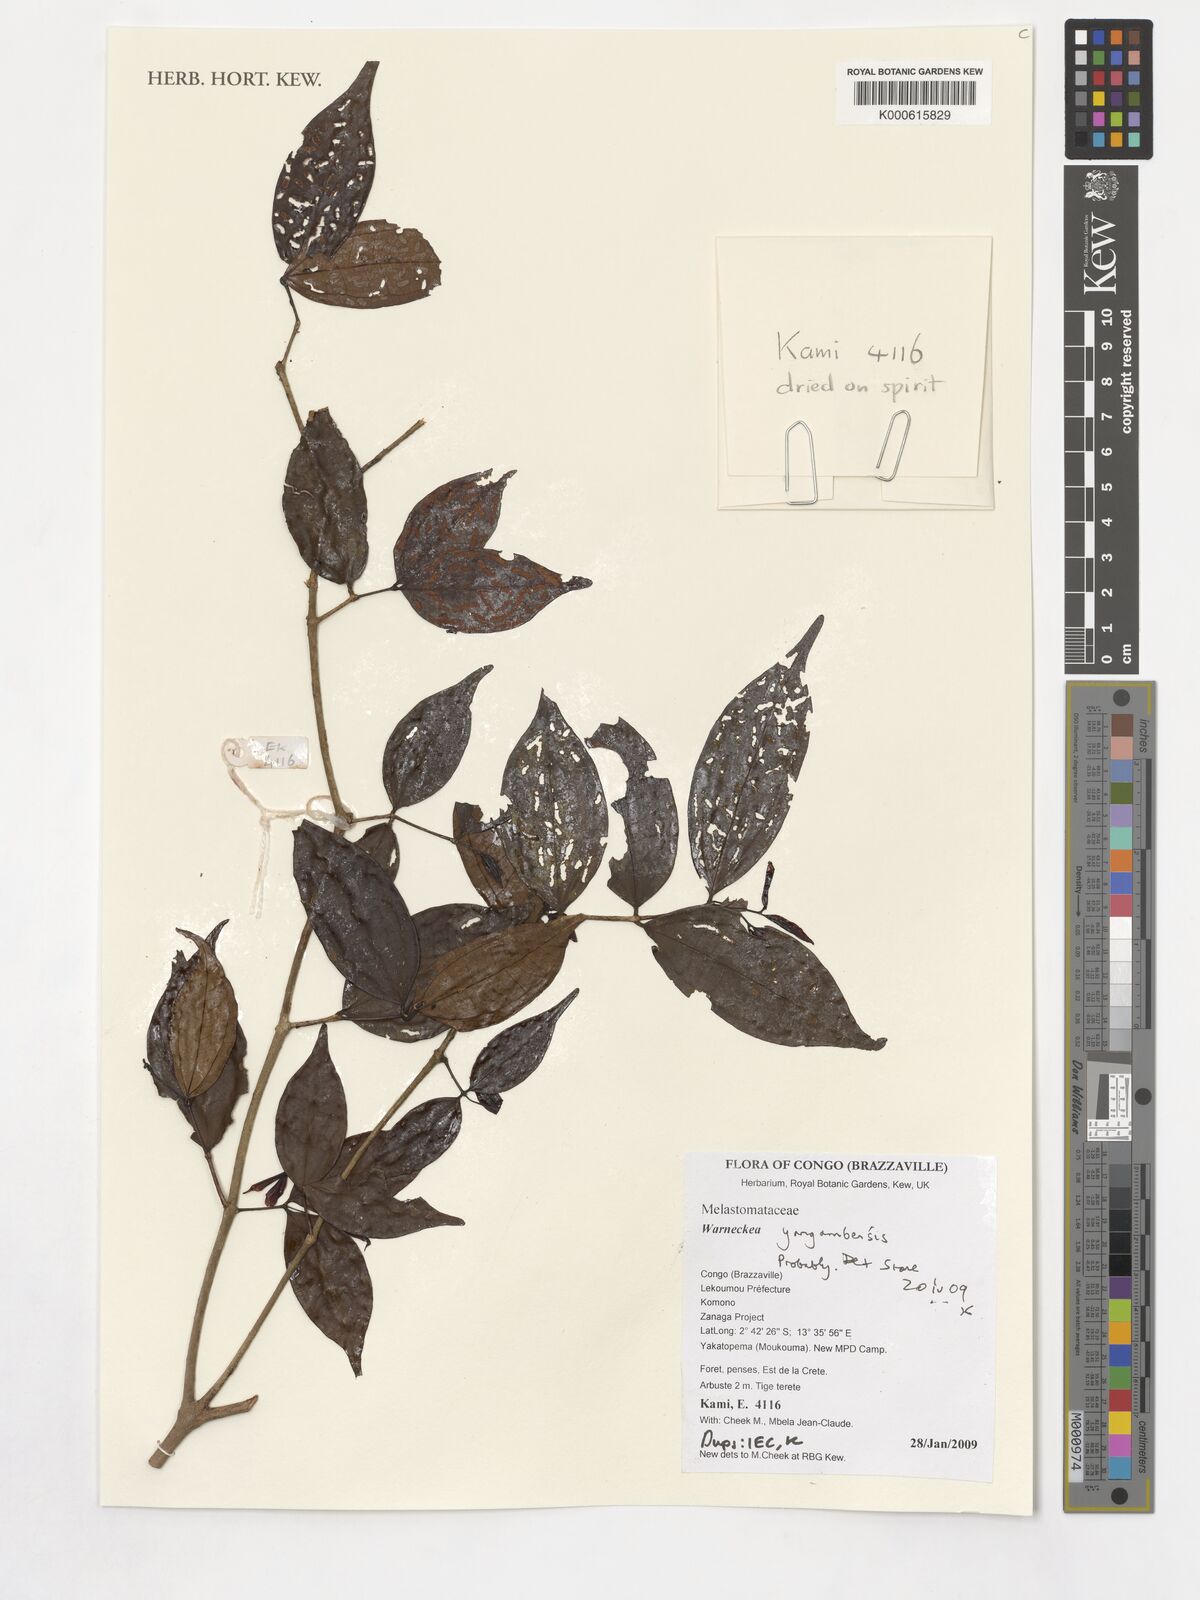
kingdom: Plantae
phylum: Tracheophyta
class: Magnoliopsida
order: Myrtales
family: Melastomataceae
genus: Warneckea
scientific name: Warneckea yangambensis
